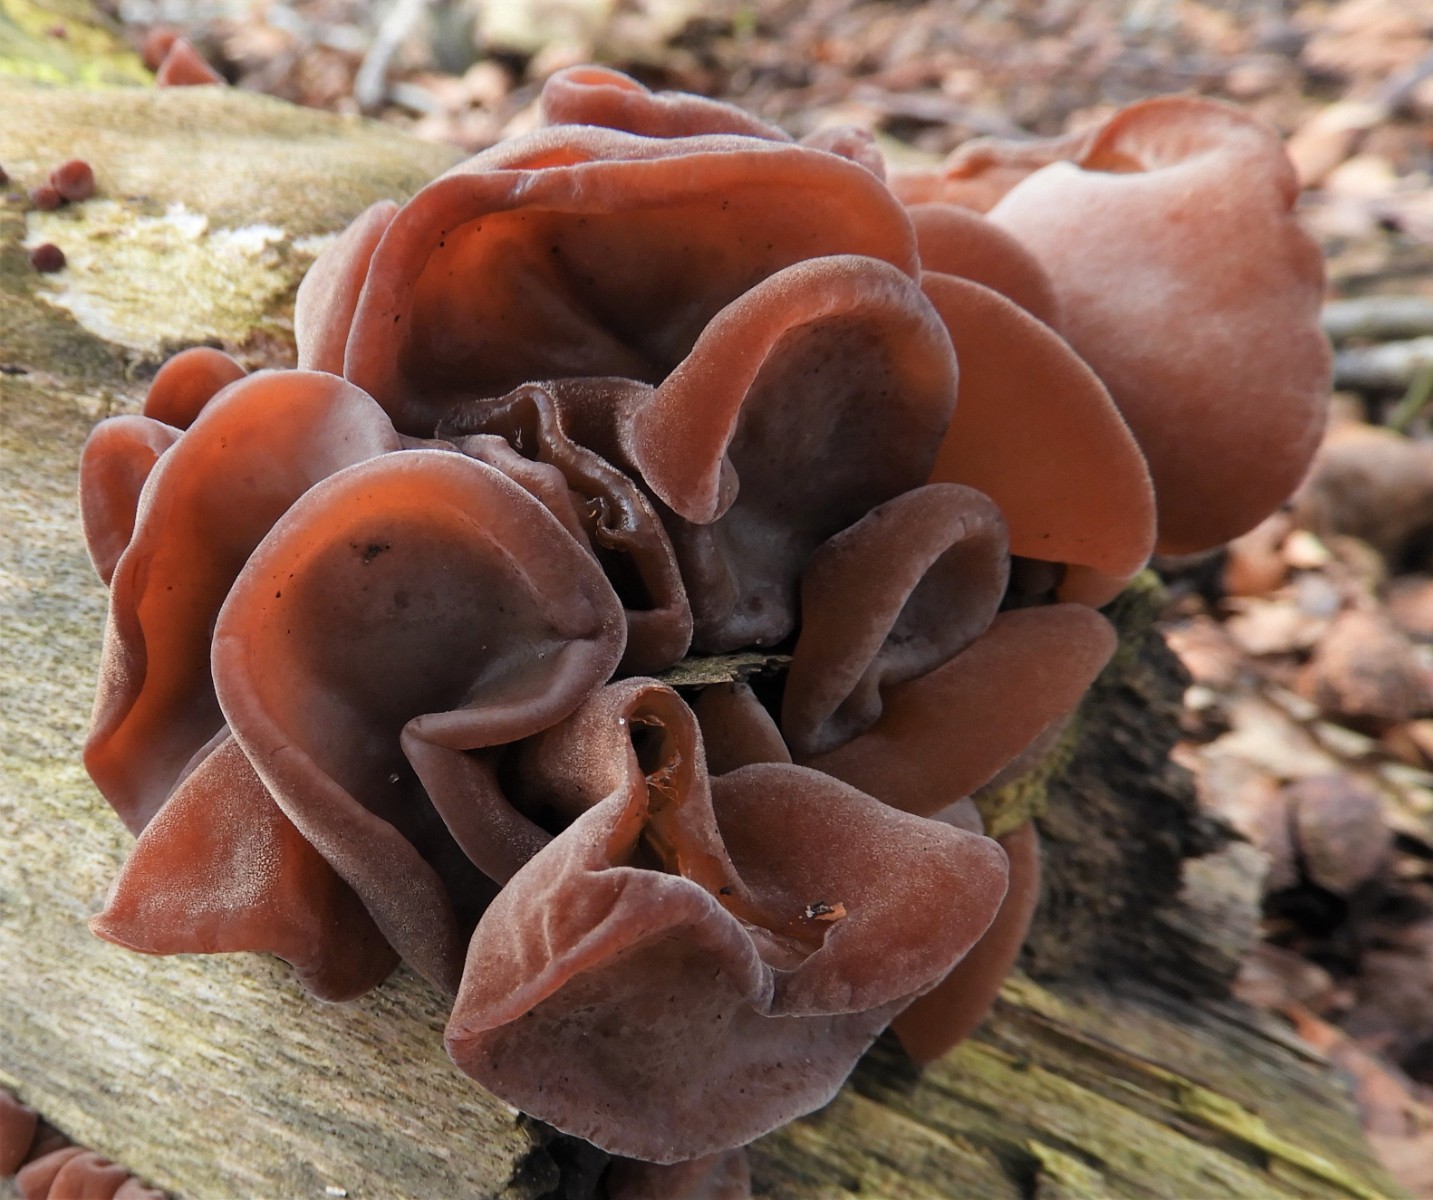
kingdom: Fungi
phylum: Basidiomycota
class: Agaricomycetes
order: Auriculariales
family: Auriculariaceae
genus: Auricularia
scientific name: Auricularia auricula-judae
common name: almindelig judasøre
